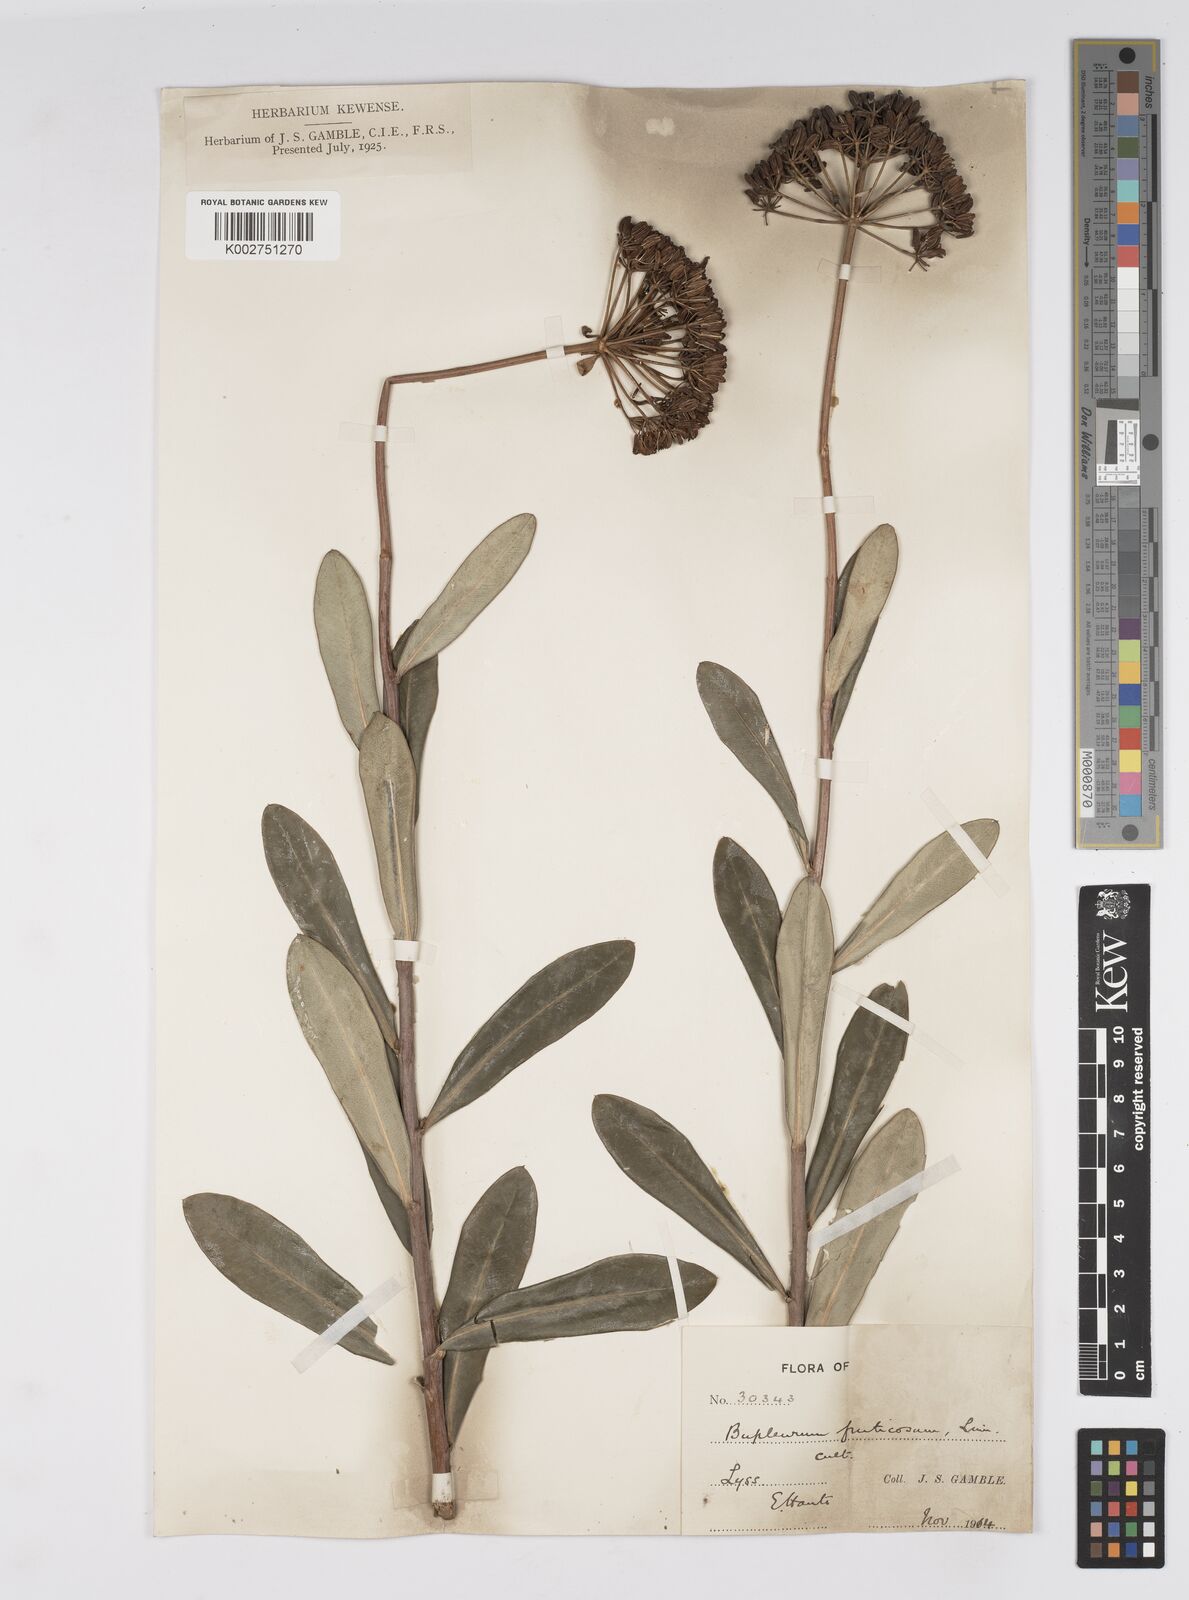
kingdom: Plantae
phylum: Tracheophyta
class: Magnoliopsida
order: Apiales
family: Apiaceae
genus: Bupleurum
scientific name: Bupleurum fruticosum
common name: Shrubby hare's-ear
